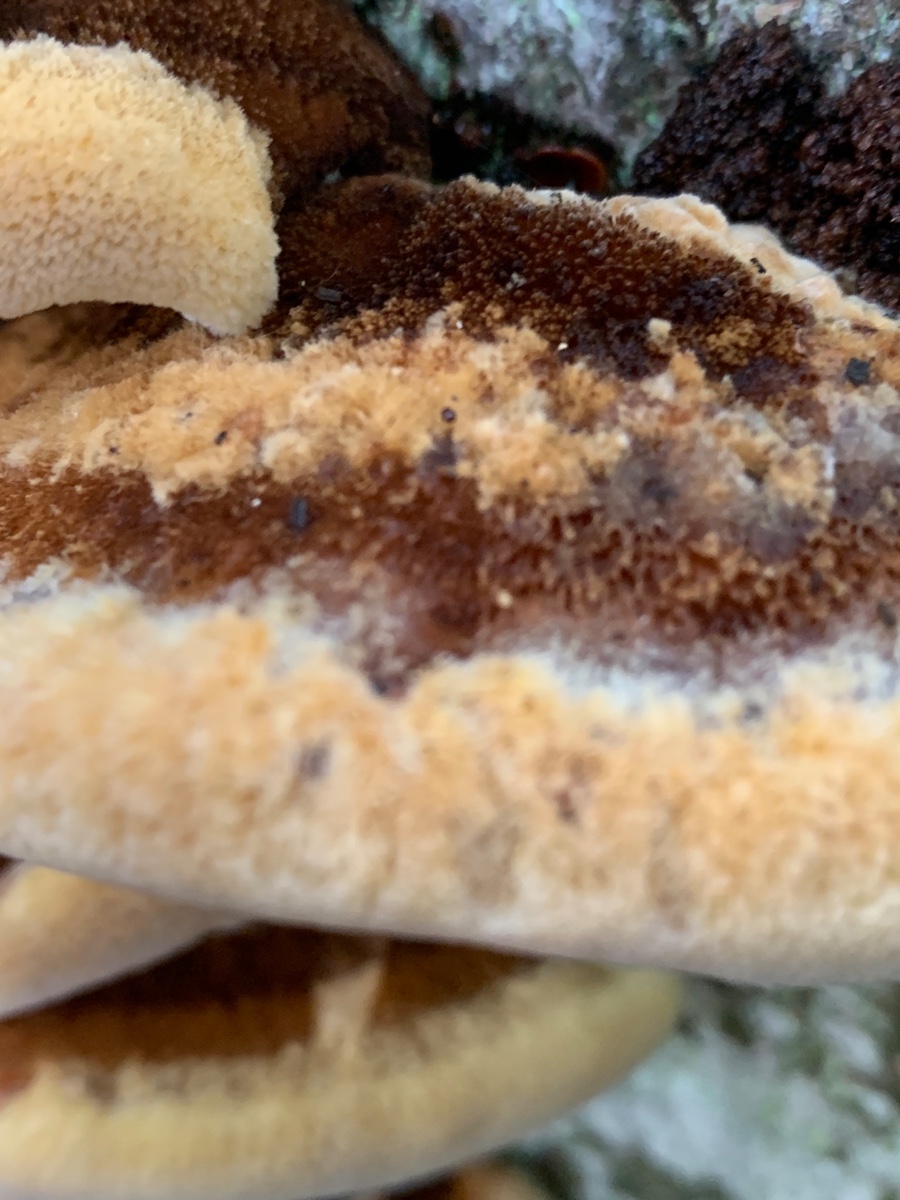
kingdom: Fungi
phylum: Basidiomycota
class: Agaricomycetes
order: Hymenochaetales
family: Hymenochaetaceae
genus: Inonotus
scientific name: Inonotus cuticularis
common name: kroghåret spejlporesvamp
